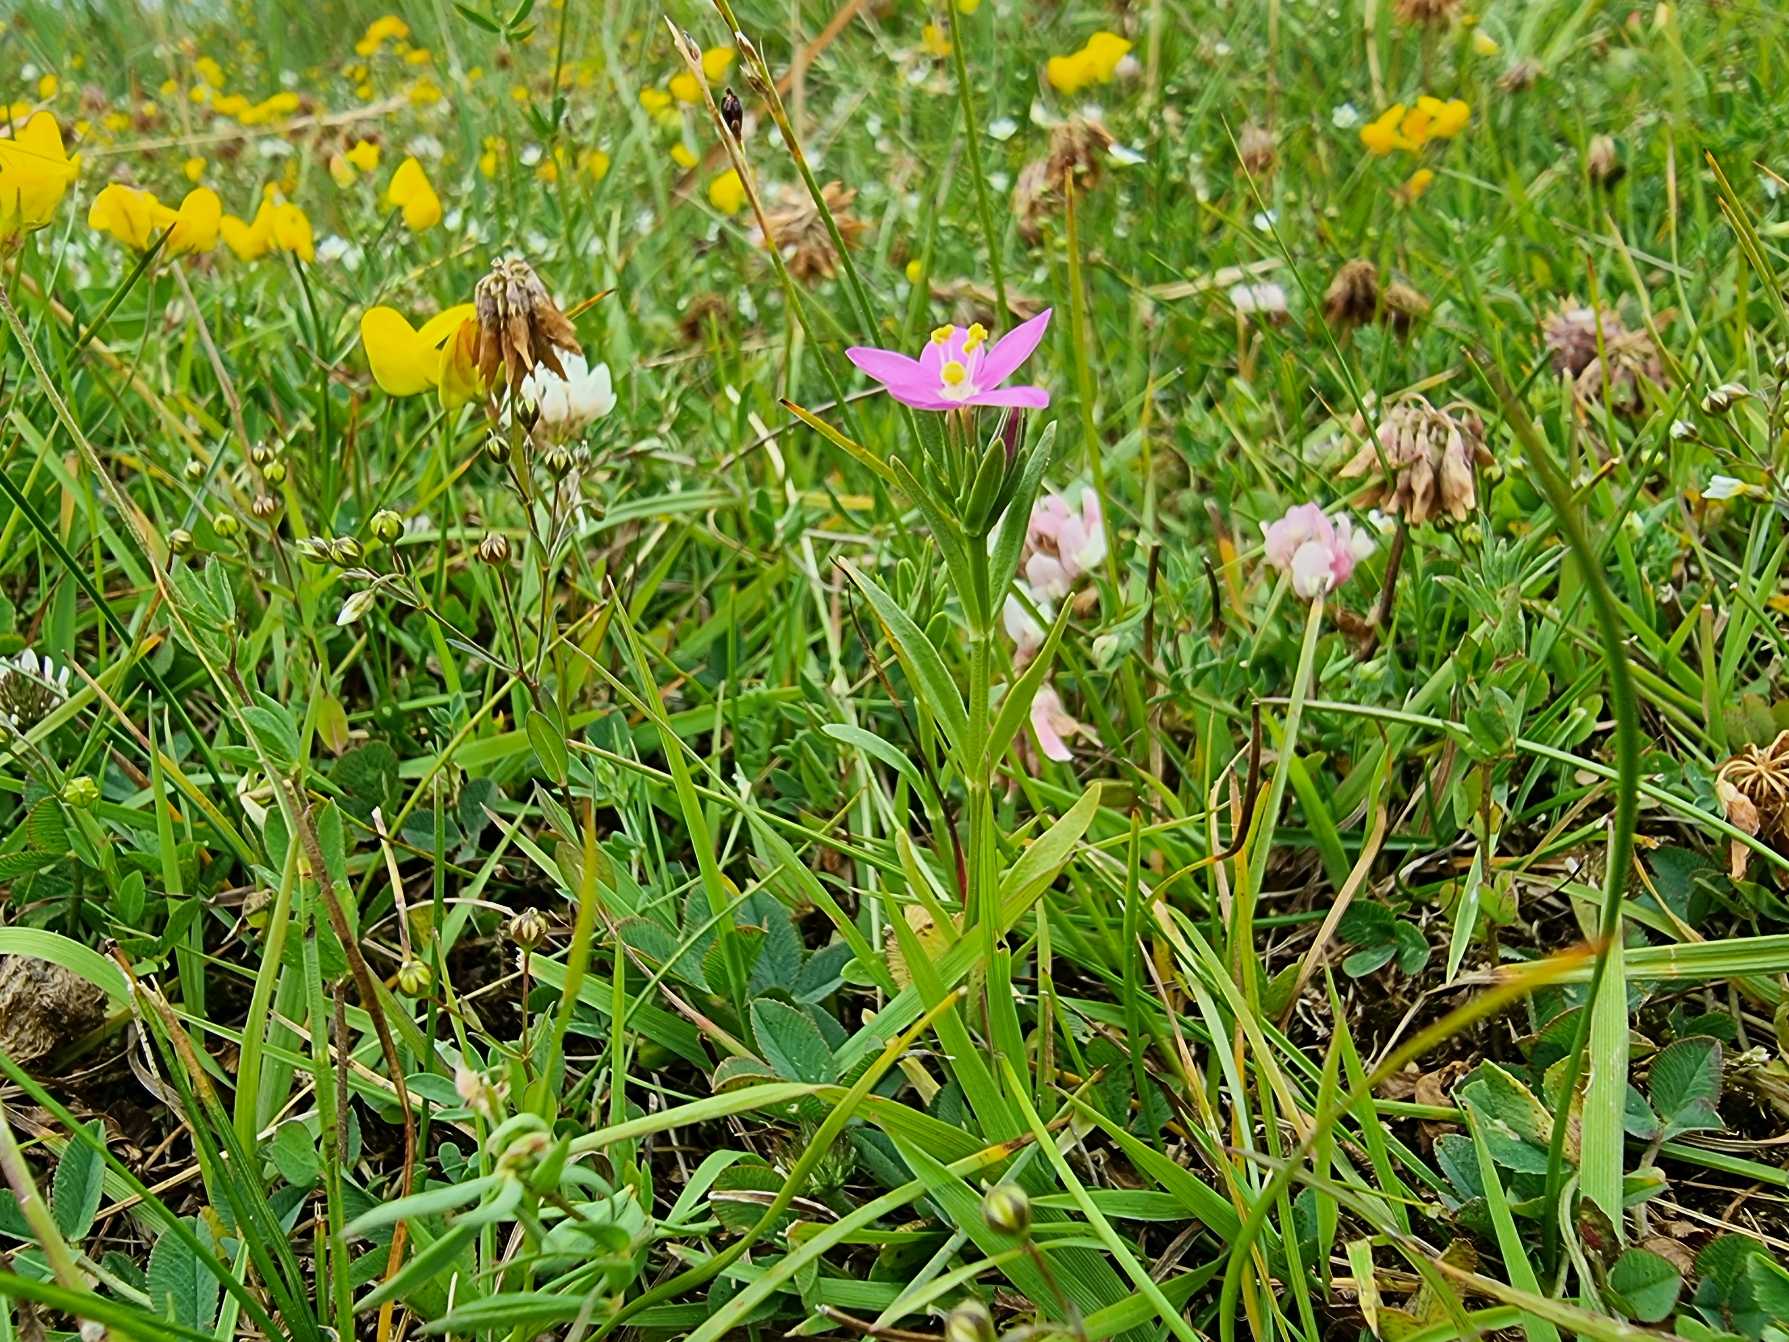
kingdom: Plantae
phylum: Tracheophyta
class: Magnoliopsida
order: Gentianales
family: Gentianaceae
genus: Centaurium
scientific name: Centaurium littorale
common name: Strand-tusindgylden
